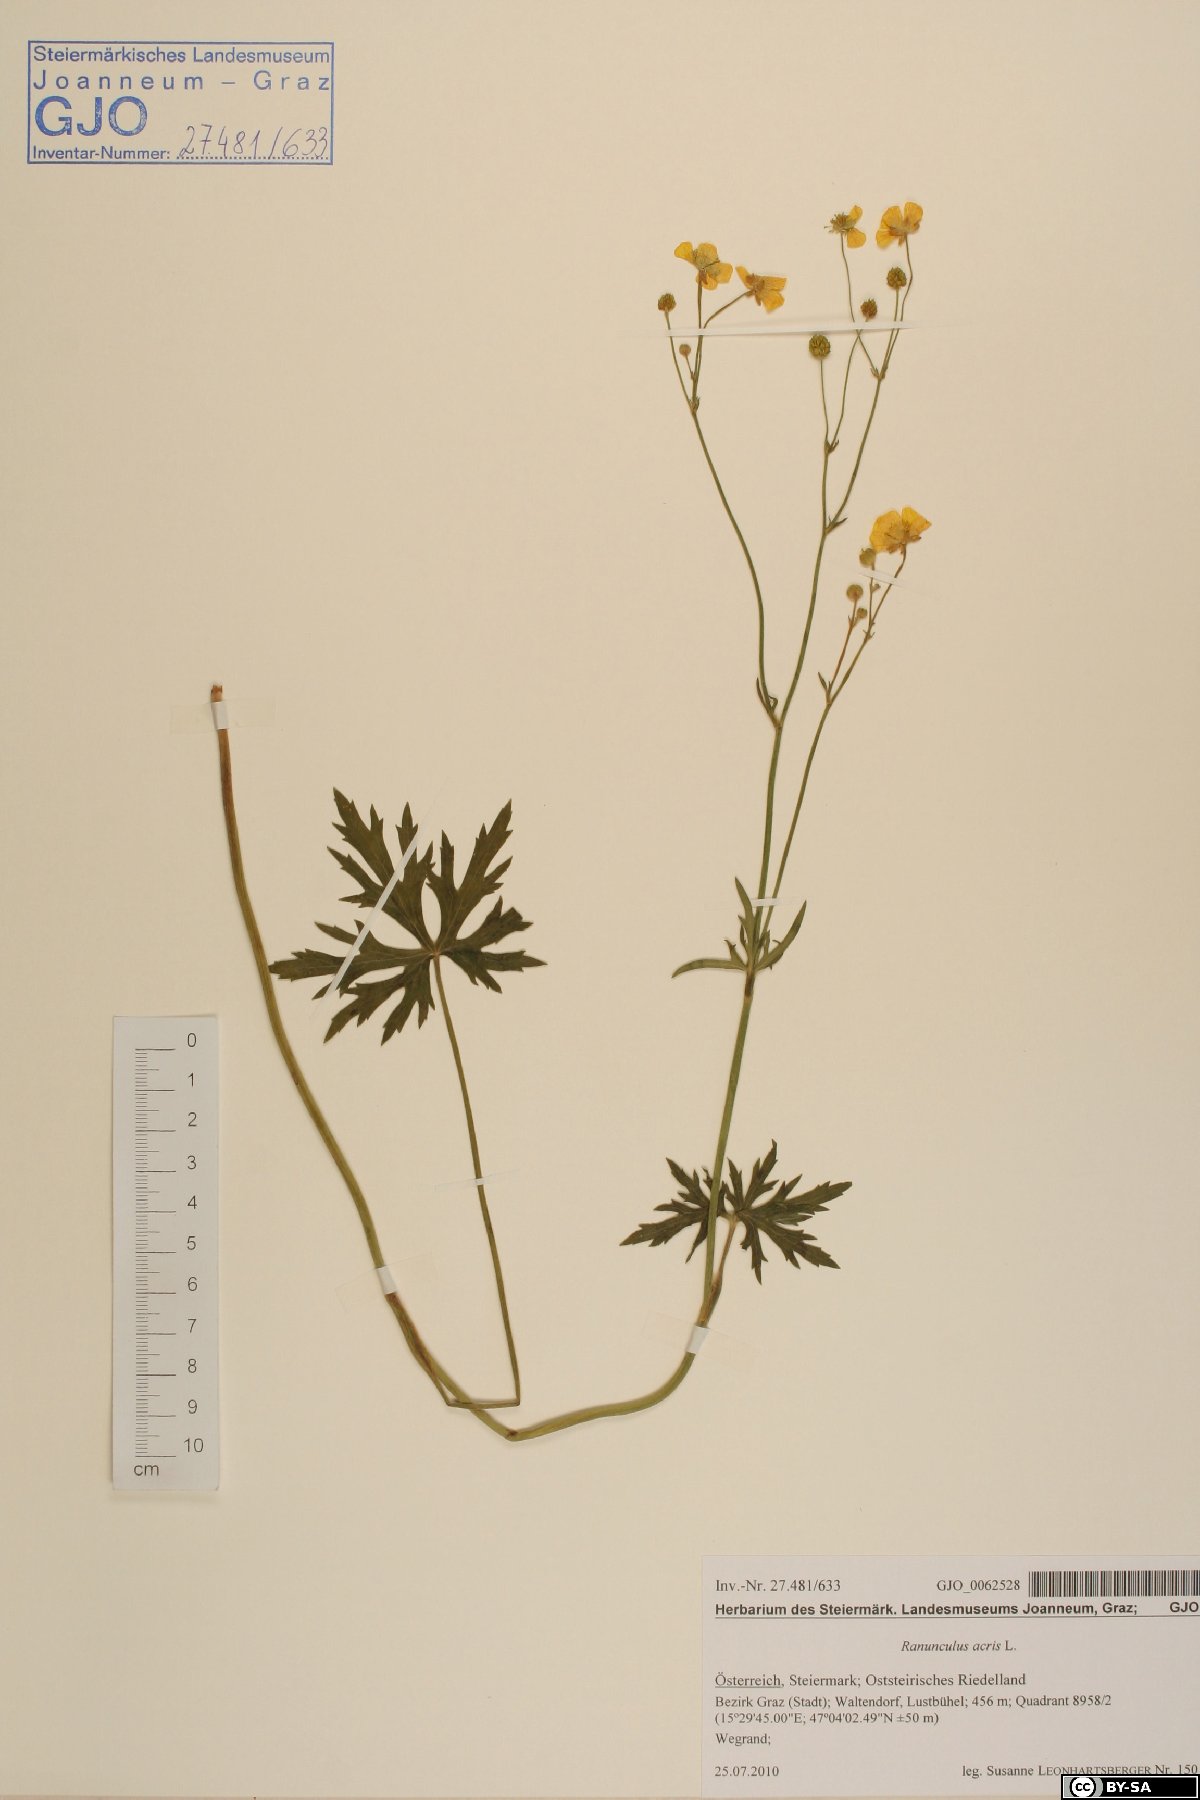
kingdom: Plantae
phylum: Tracheophyta
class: Magnoliopsida
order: Ranunculales
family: Ranunculaceae
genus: Ranunculus
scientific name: Ranunculus acris
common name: Meadow buttercup
